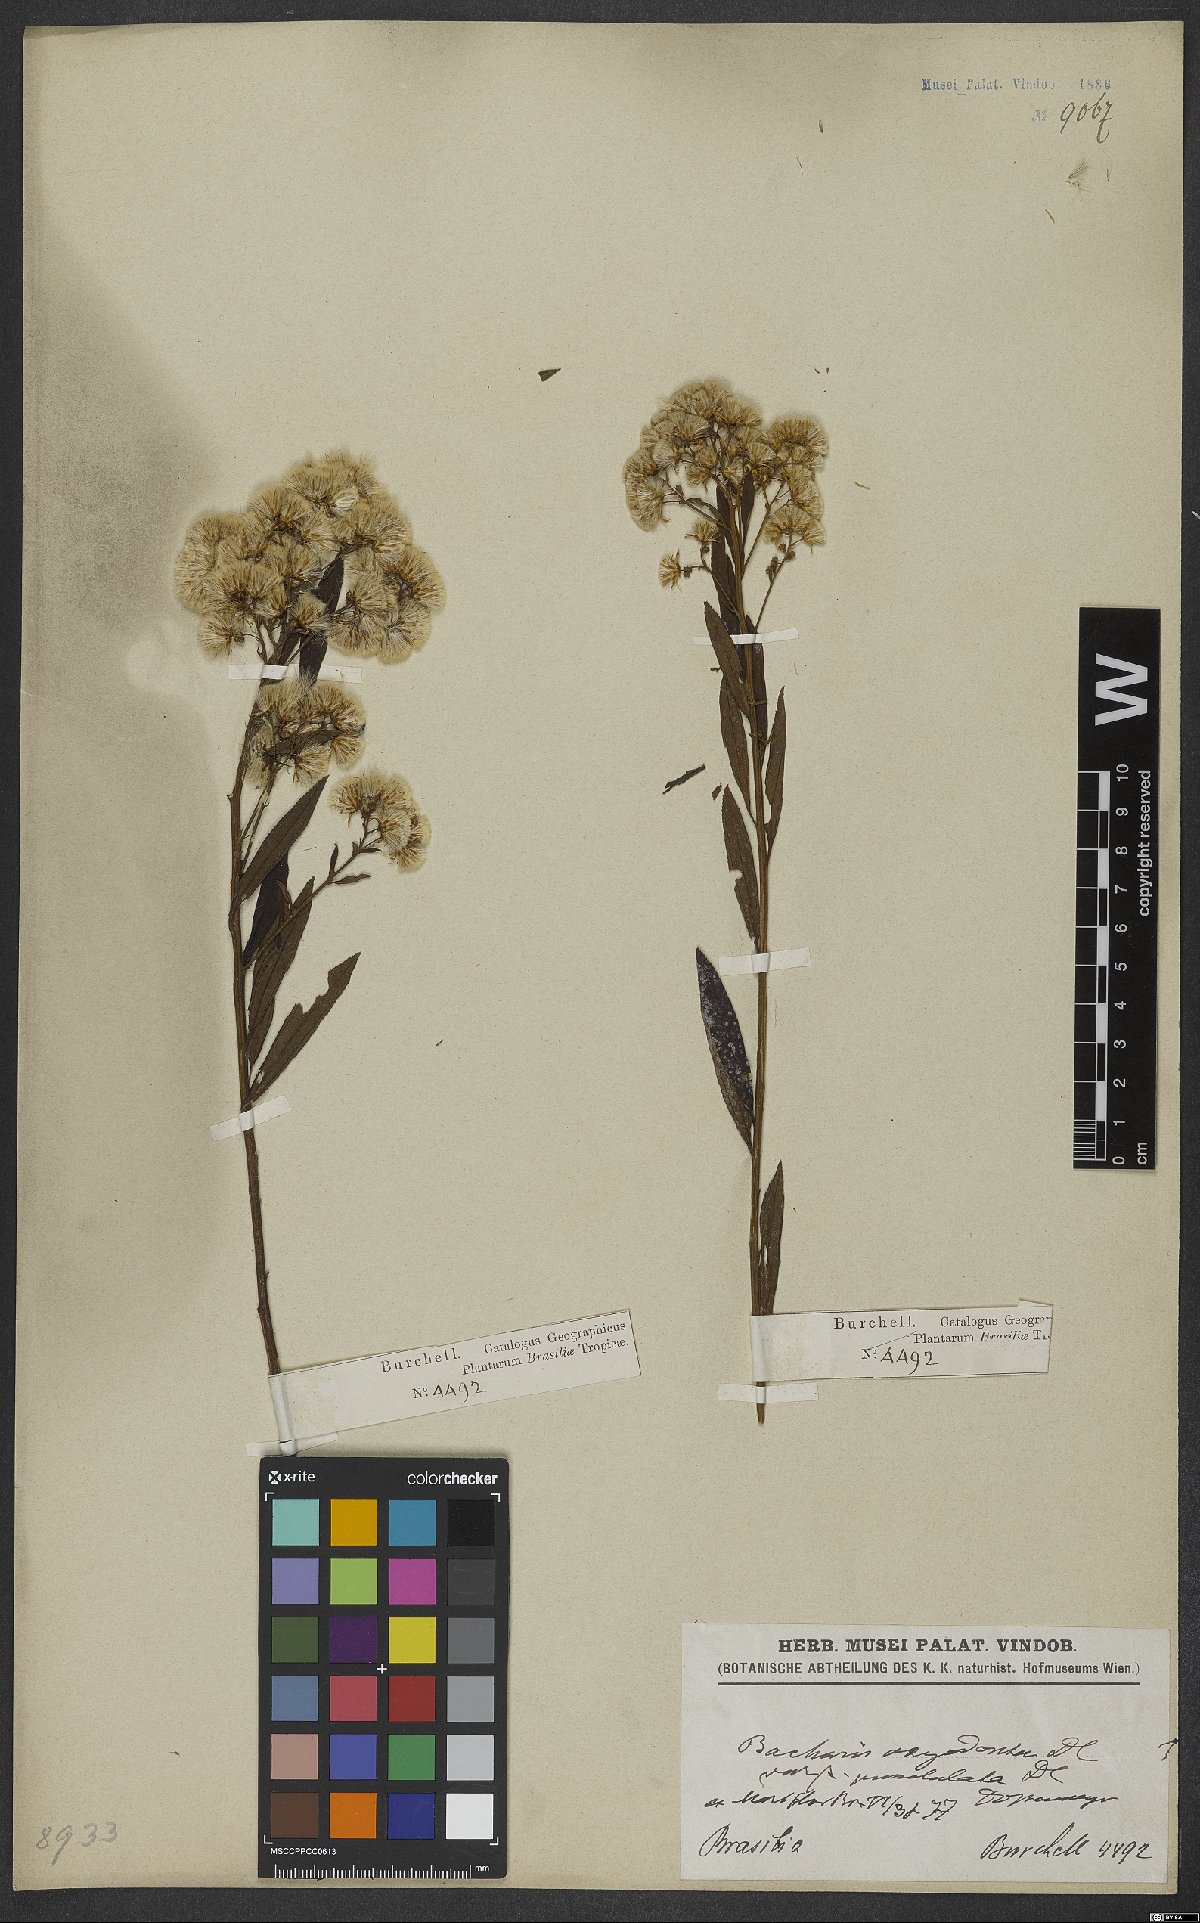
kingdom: Plantae
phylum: Tracheophyta
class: Magnoliopsida
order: Asterales
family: Asteraceae
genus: Baccharis
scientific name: Baccharis punctulata
